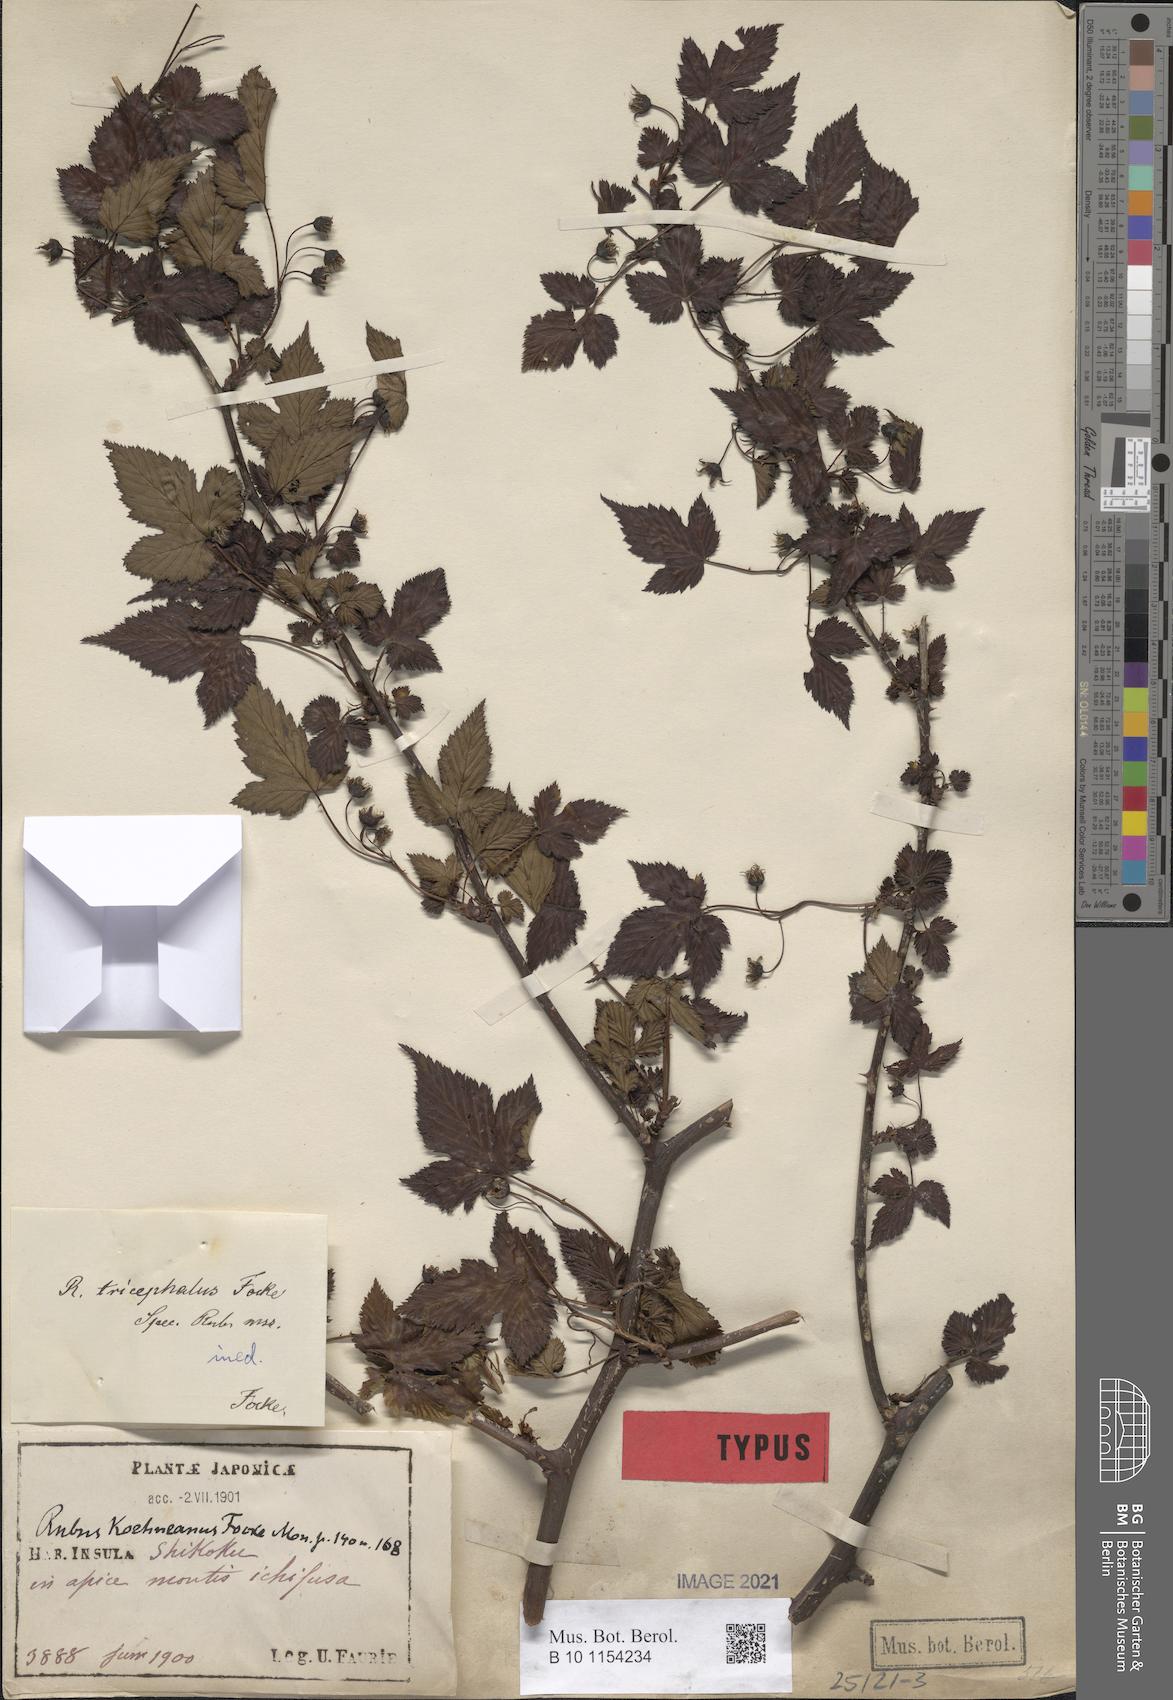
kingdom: Plantae
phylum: Tracheophyta
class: Magnoliopsida
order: Rosales
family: Rosaceae
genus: Rubus
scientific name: Rubus subcrataegifolius
